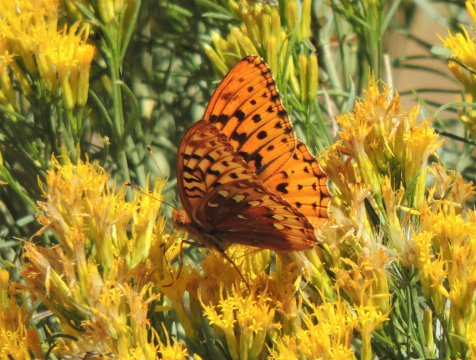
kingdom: Animalia
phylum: Arthropoda
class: Insecta
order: Lepidoptera
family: Nymphalidae
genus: Speyeria
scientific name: Speyeria cybele
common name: Great Spangled Fritillary
